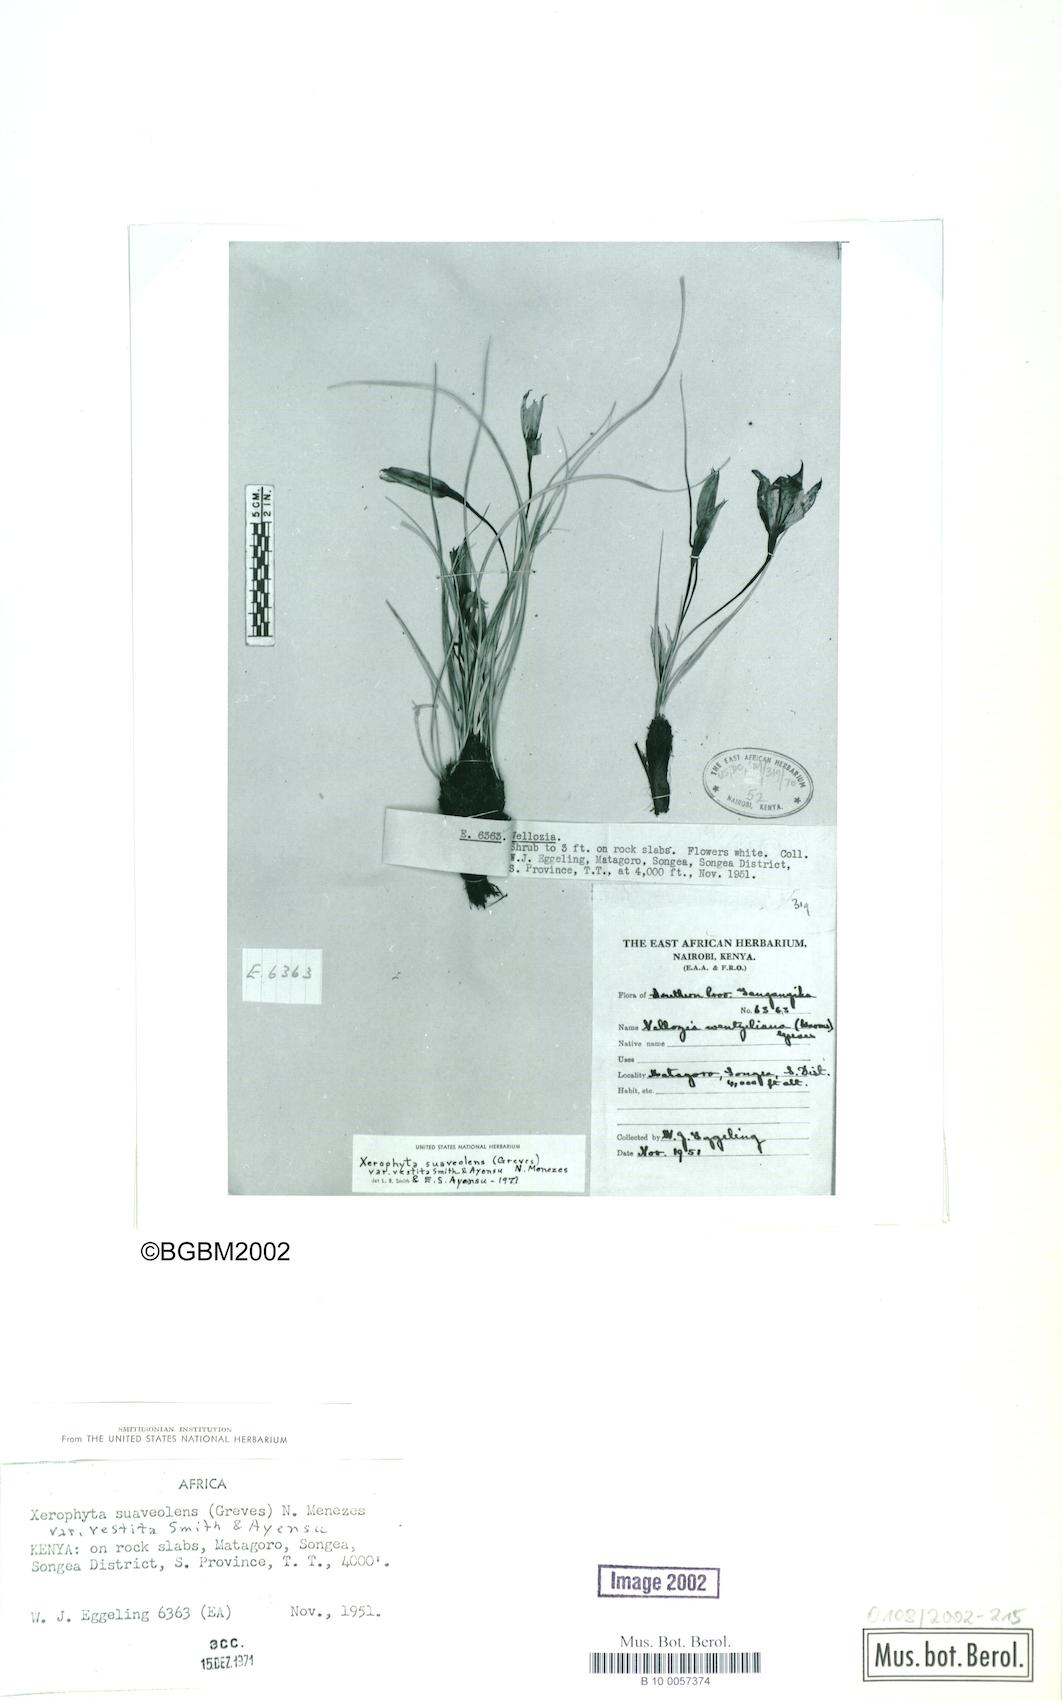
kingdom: Plantae
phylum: Tracheophyta
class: Liliopsida
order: Pandanales
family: Velloziaceae
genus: Xerophyta
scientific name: Xerophyta suaveolens
